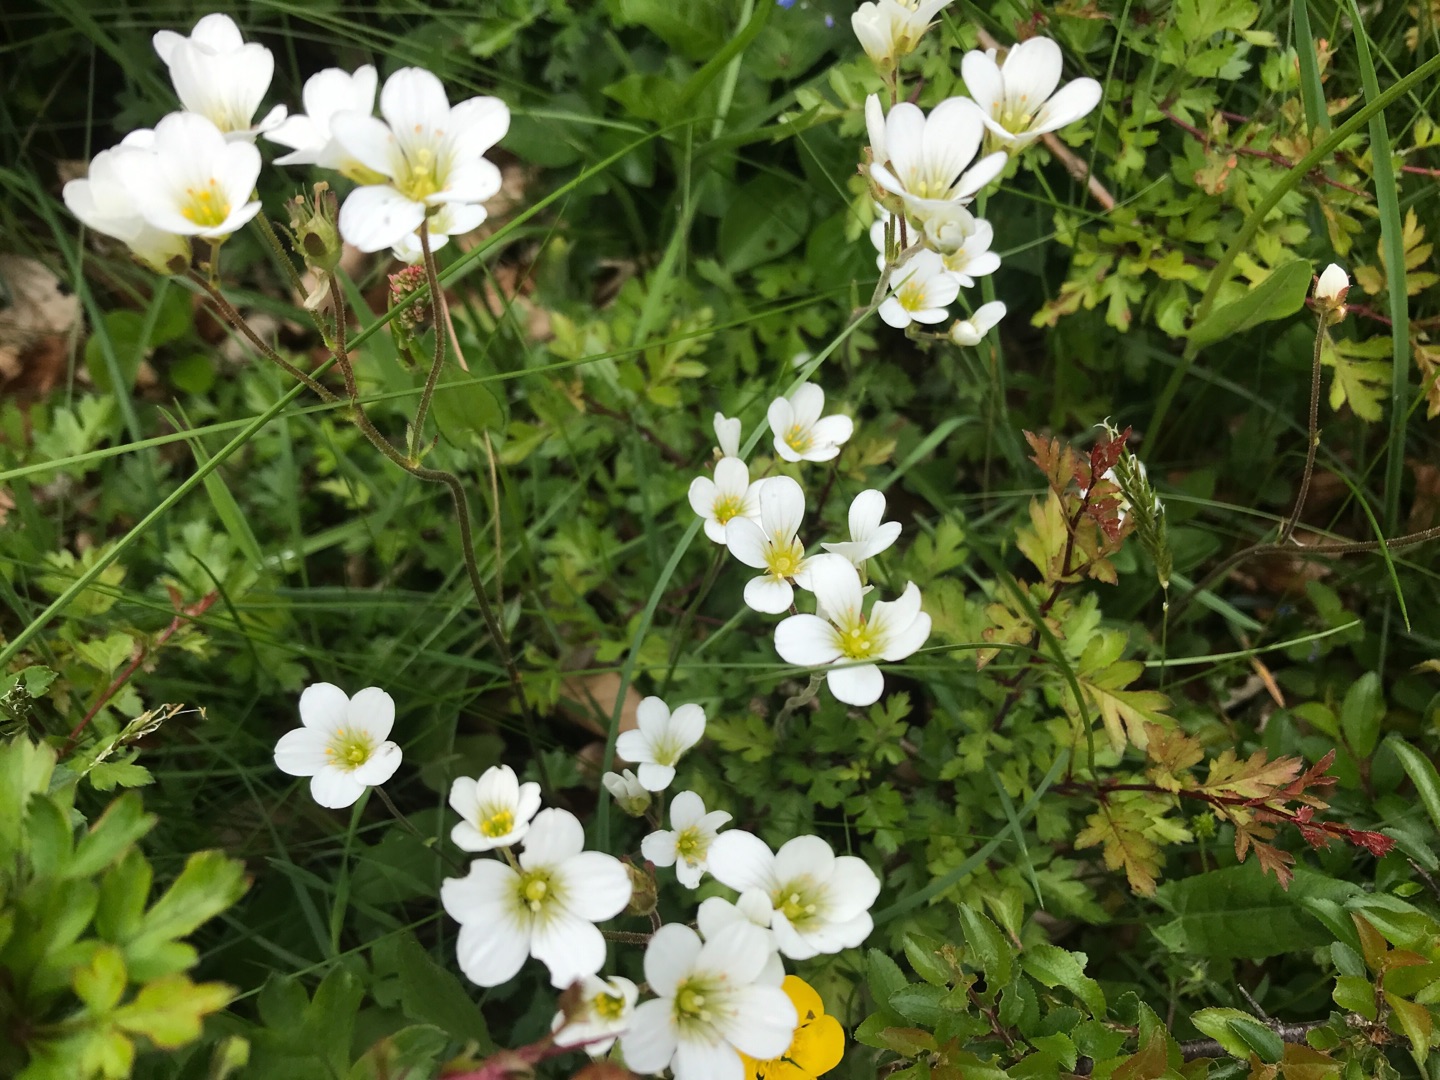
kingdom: Plantae
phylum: Tracheophyta
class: Magnoliopsida
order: Saxifragales
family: Saxifragaceae
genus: Saxifraga
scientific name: Saxifraga granulata
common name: Kornet stenbræk
